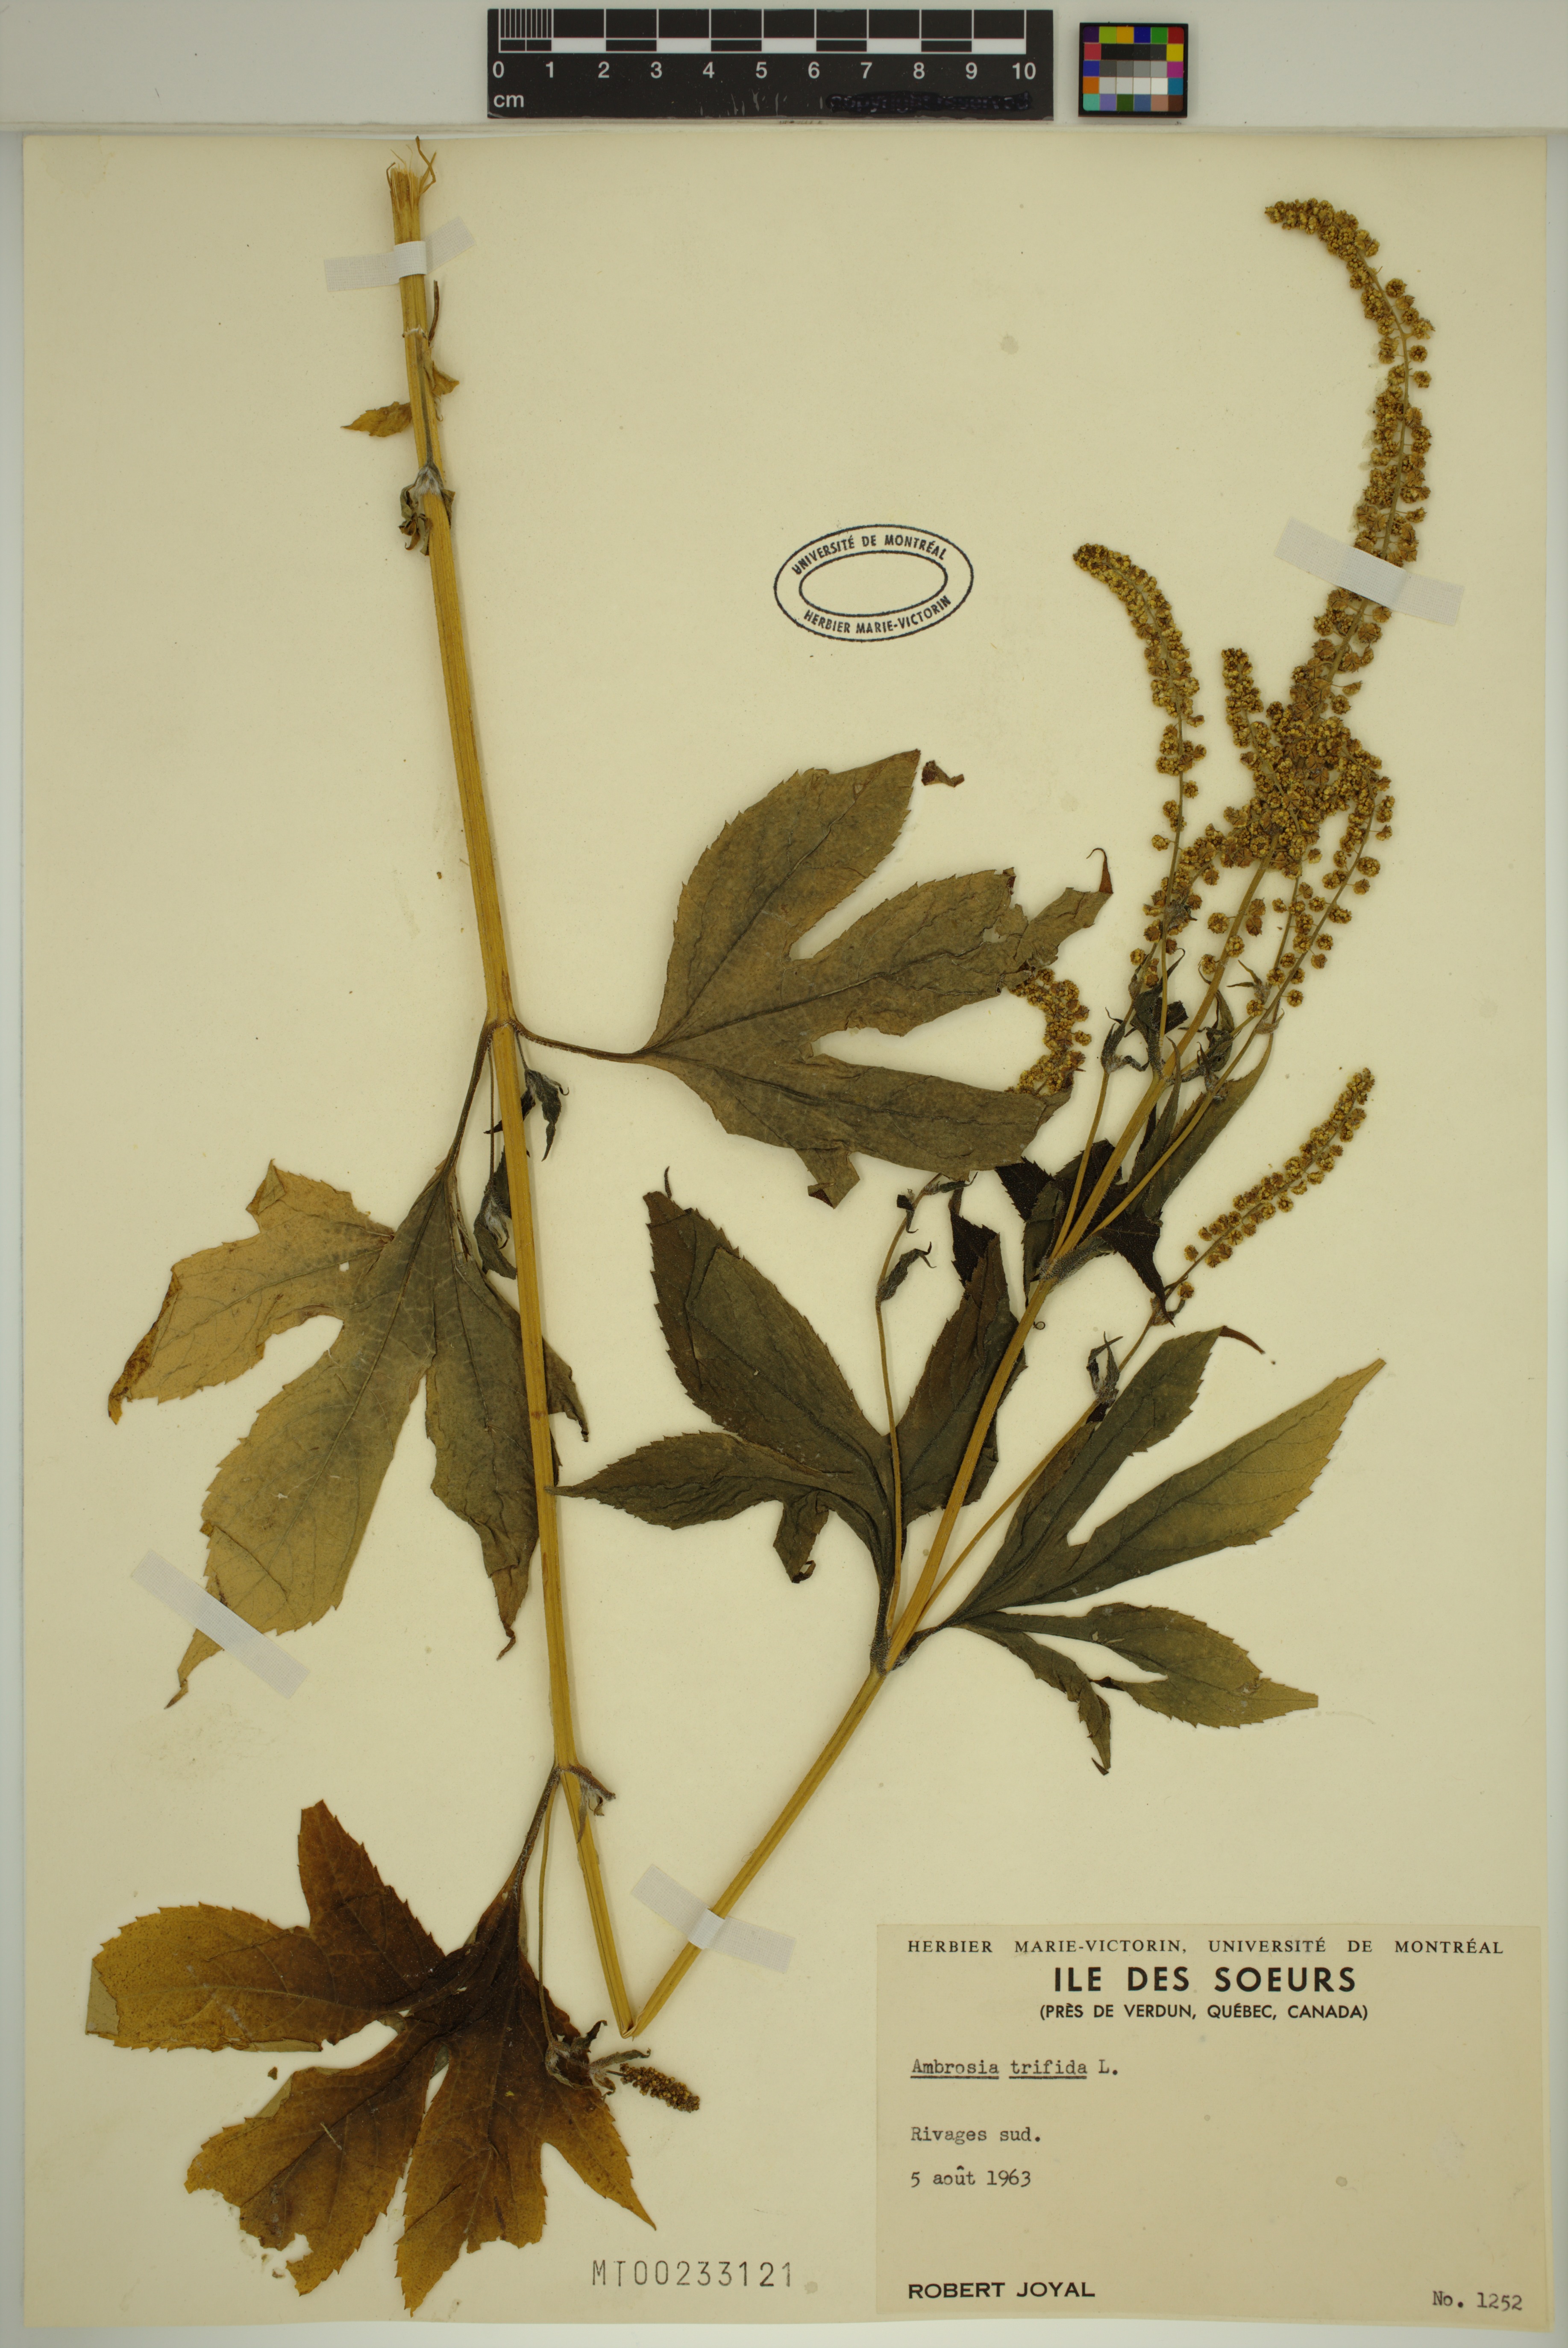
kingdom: Plantae
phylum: Tracheophyta
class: Magnoliopsida
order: Asterales
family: Asteraceae
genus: Ambrosia
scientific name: Ambrosia trifida
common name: Giant ragweed
